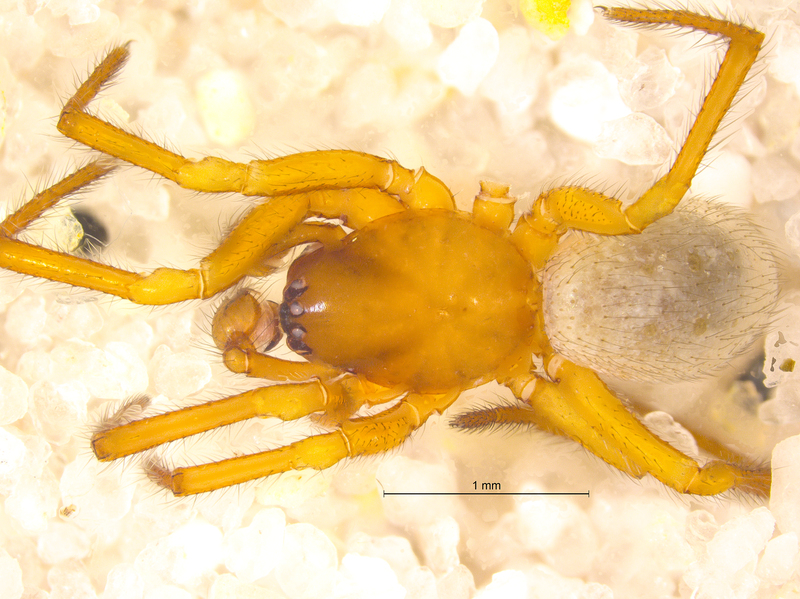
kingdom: Animalia
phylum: Arthropoda
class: Arachnida
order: Araneae
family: Theridiidae
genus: Robertus
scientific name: Robertus lividus
